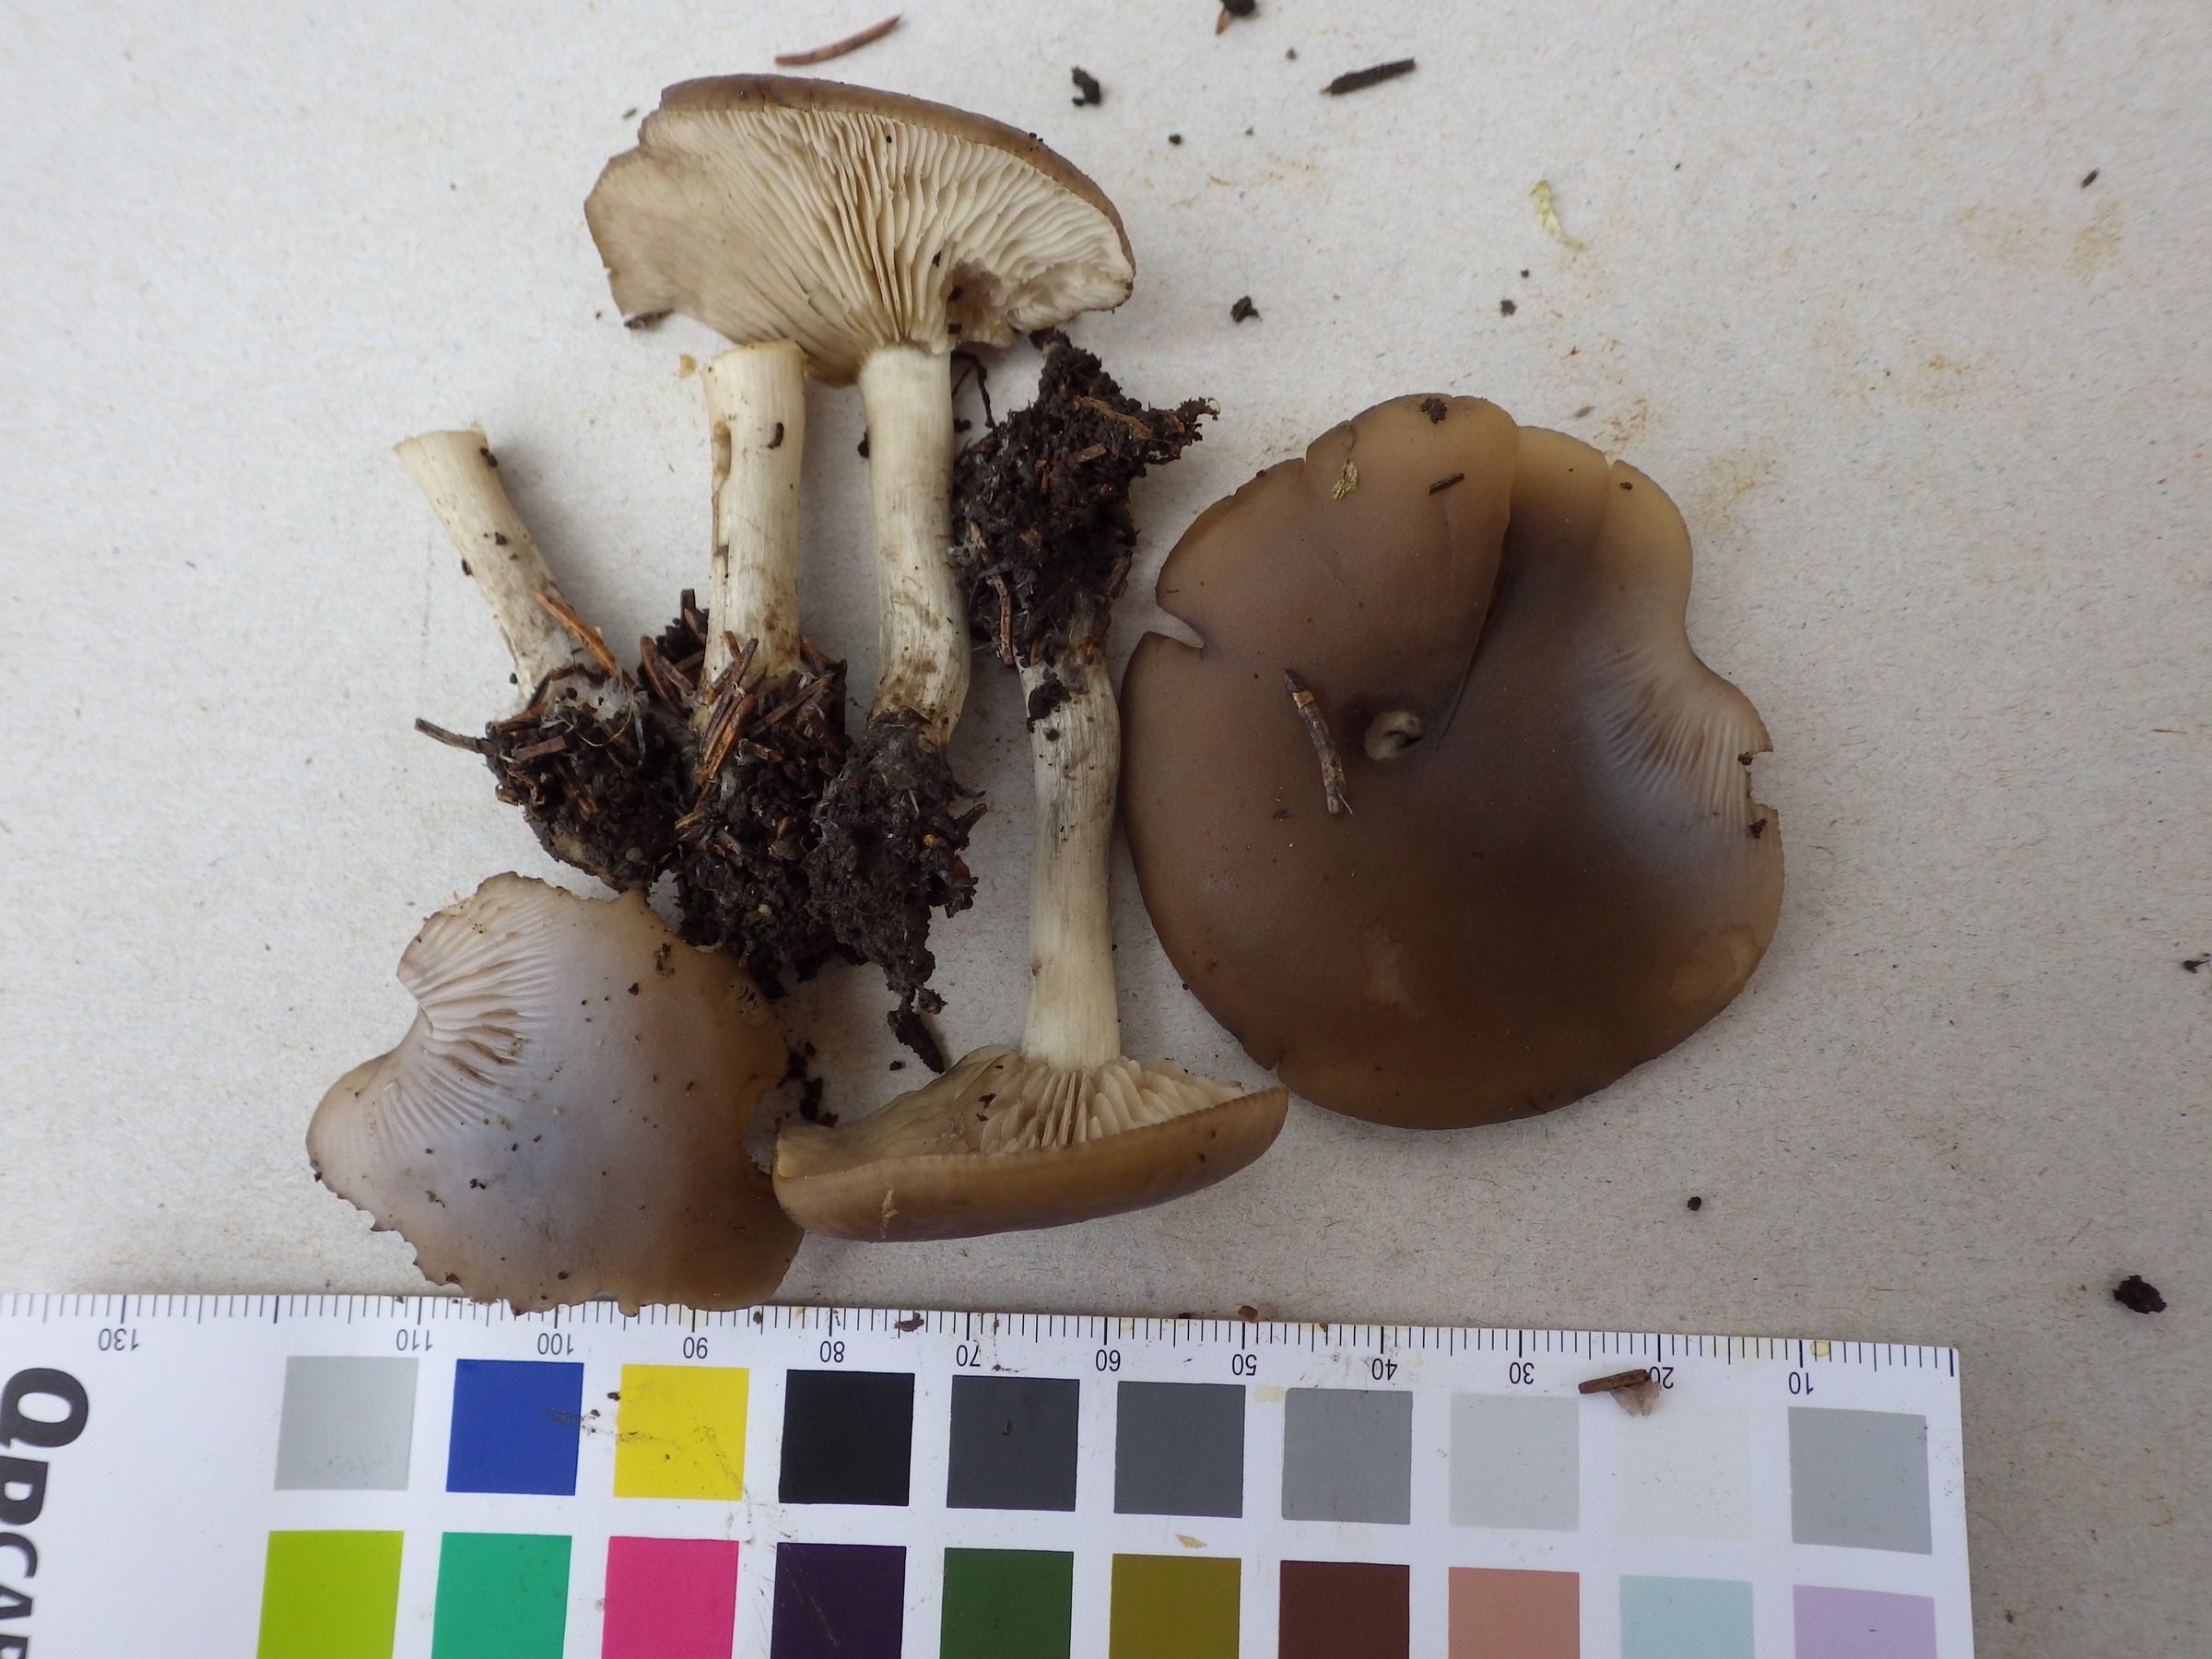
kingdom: Fungi
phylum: Basidiomycota
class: Agaricomycetes
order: Agaricales
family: Lyophyllaceae
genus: Lyophyllum
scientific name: Lyophyllum deliberatum
